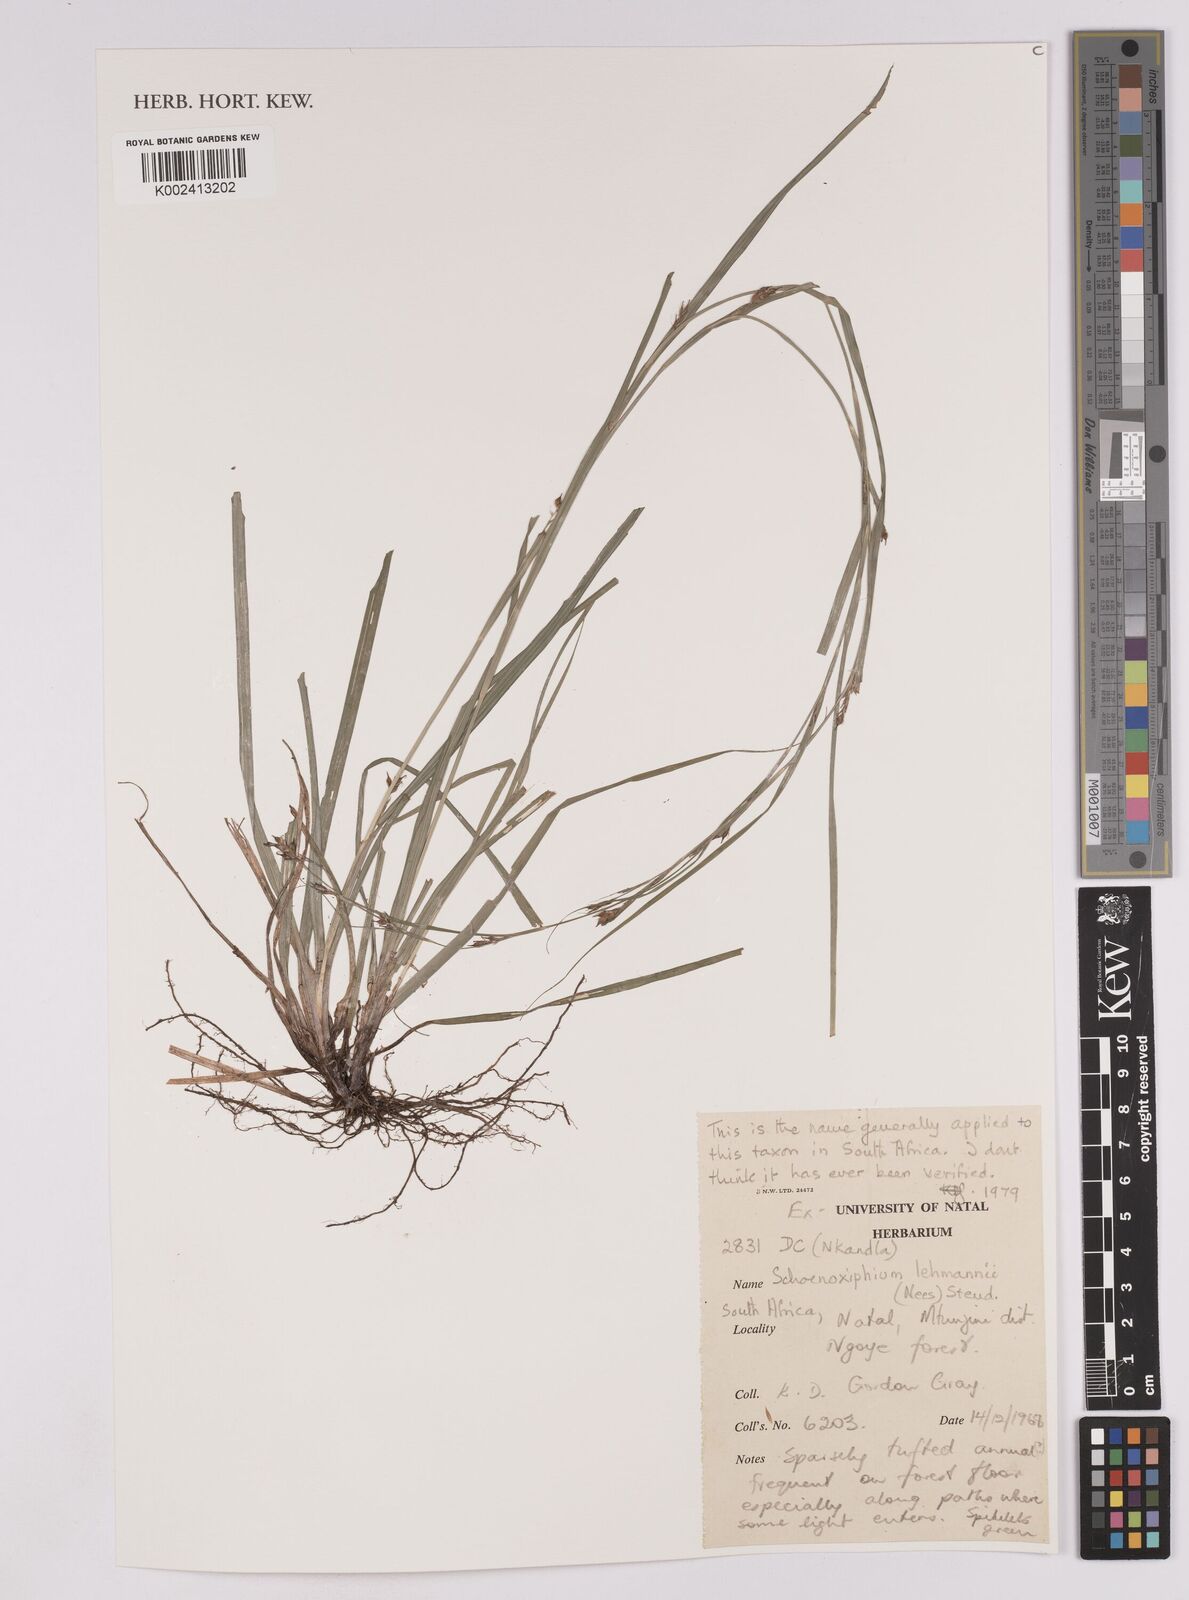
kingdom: Plantae
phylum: Tracheophyta
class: Liliopsida
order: Poales
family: Cyperaceae
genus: Carex
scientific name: Carex uhligii
